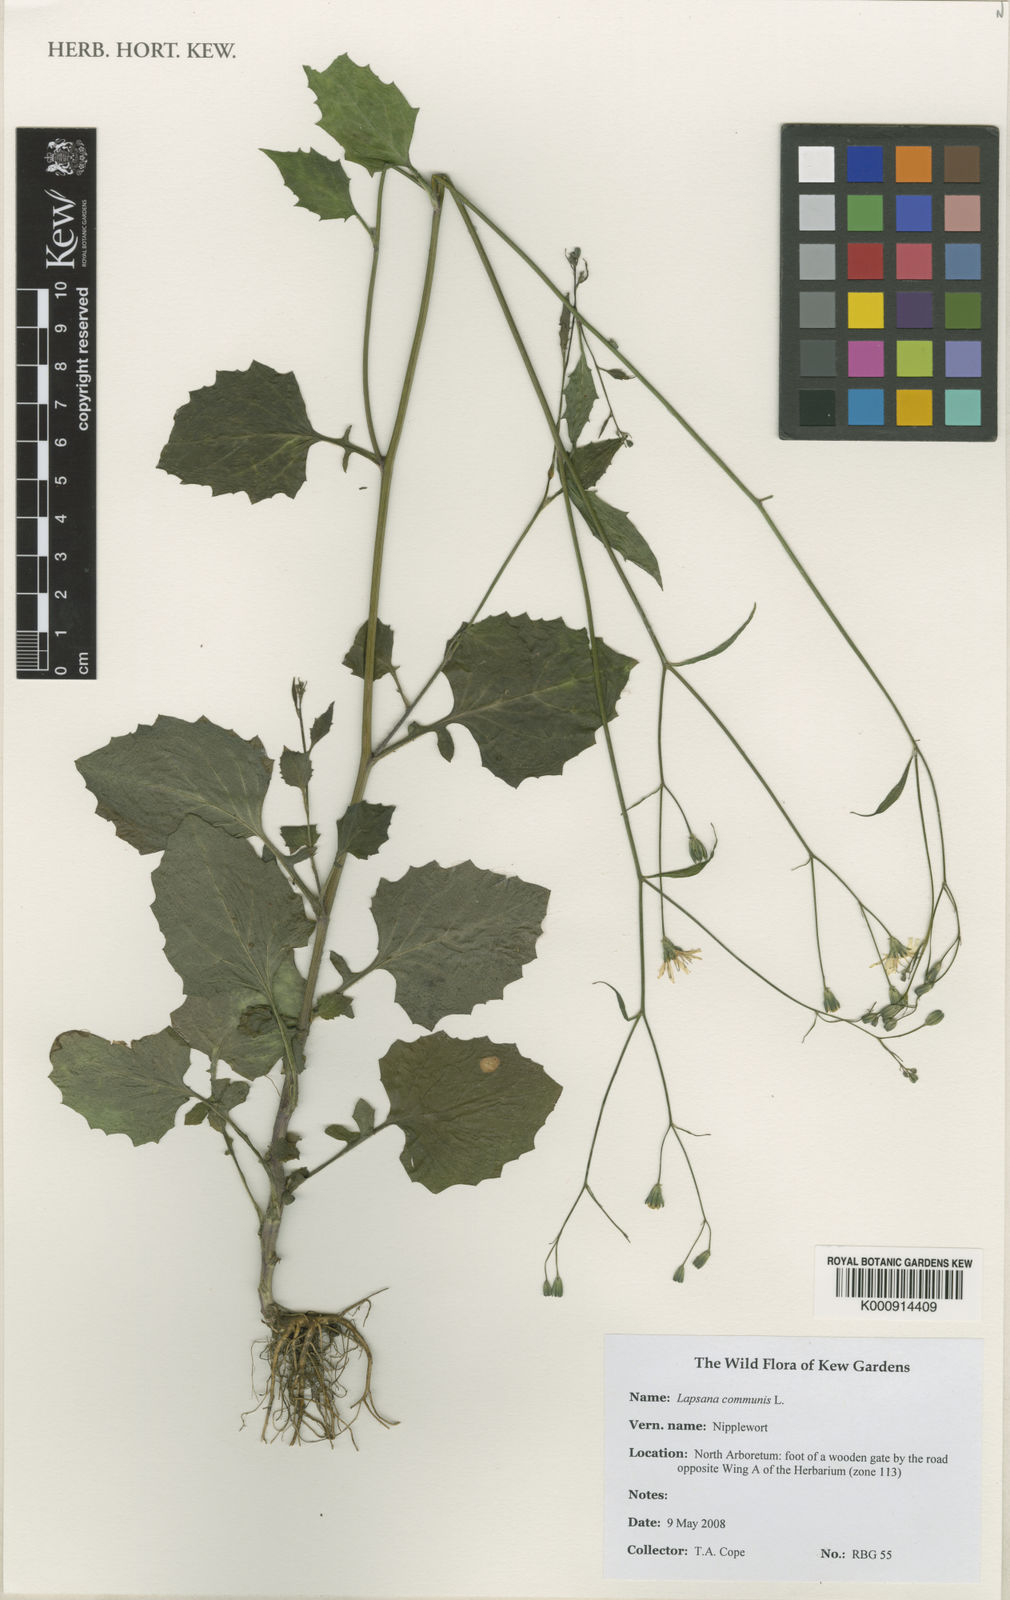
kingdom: Plantae
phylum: Tracheophyta
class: Magnoliopsida
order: Asterales
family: Asteraceae
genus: Lapsana
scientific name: Lapsana communis
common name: Nipplewort
